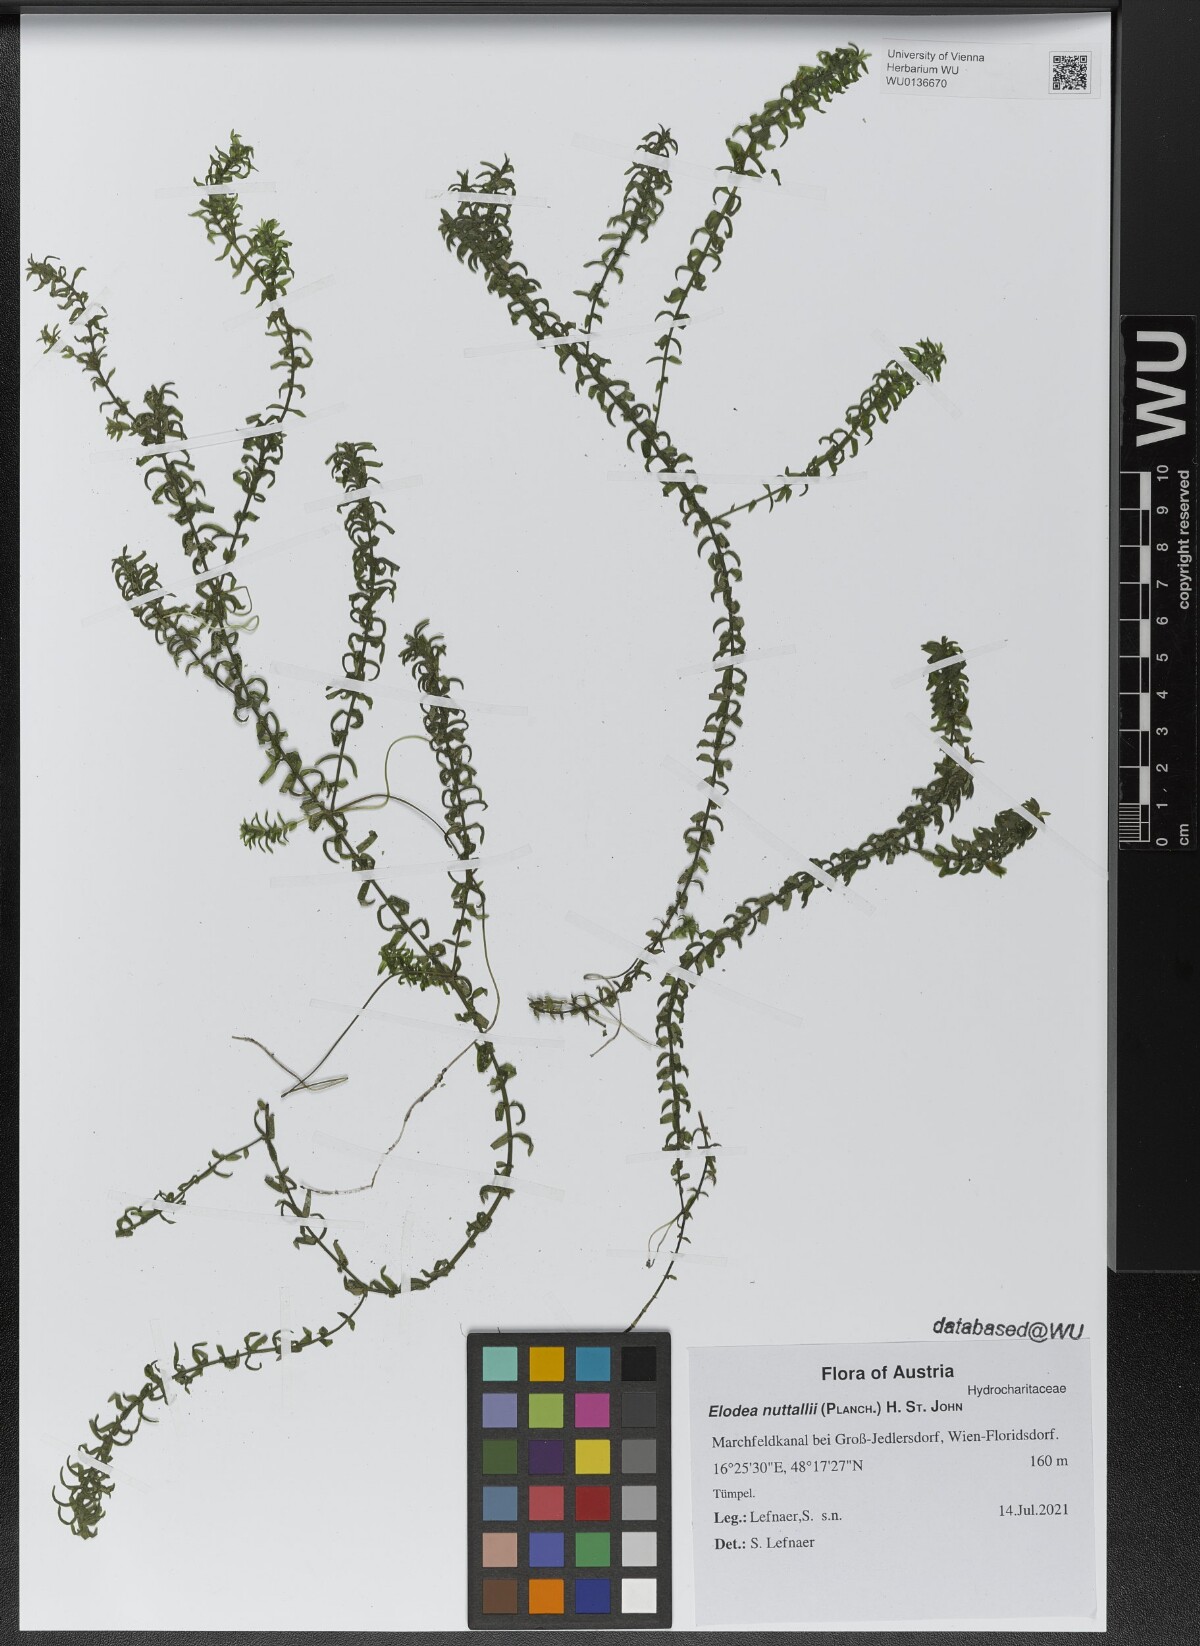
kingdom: Plantae
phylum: Tracheophyta
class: Liliopsida
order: Alismatales
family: Hydrocharitaceae
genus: Elodea
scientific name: Elodea nuttallii
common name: Nuttall's waterweed
